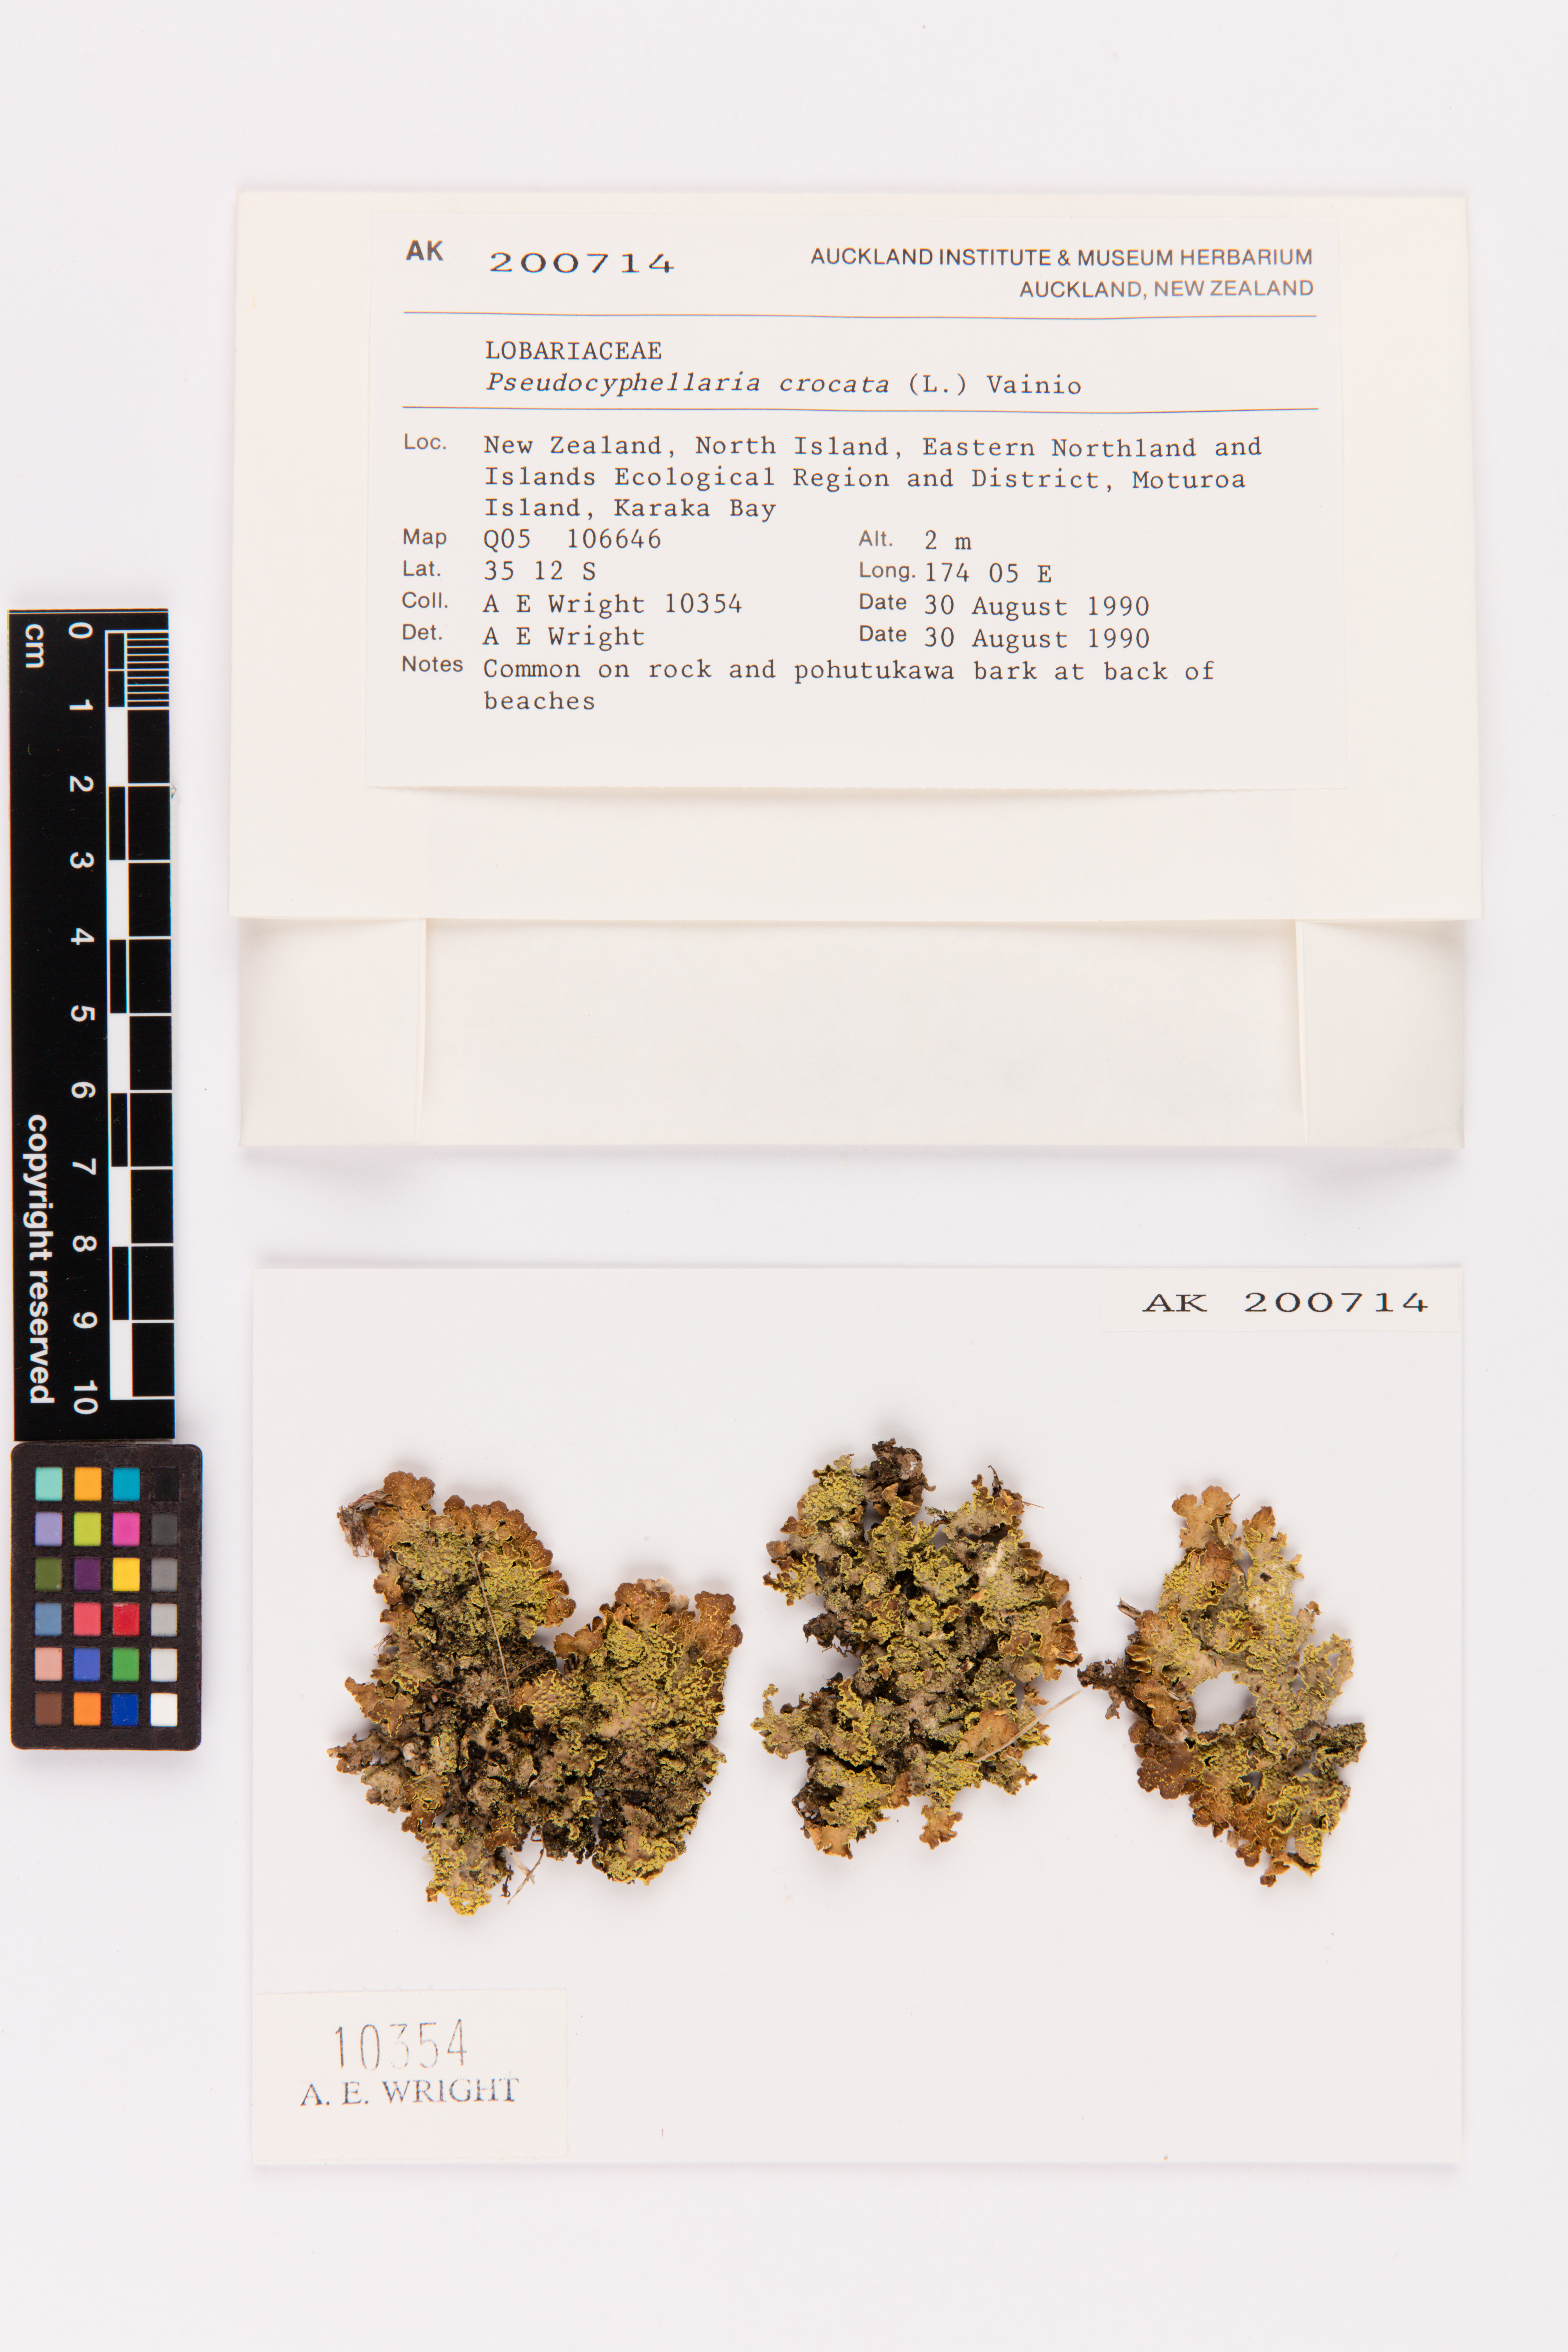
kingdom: Fungi
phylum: Ascomycota
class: Lecanoromycetes
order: Peltigerales
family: Lobariaceae
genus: Pseudocyphellaria
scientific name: Pseudocyphellaria crocata
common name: Golden specklebelly
